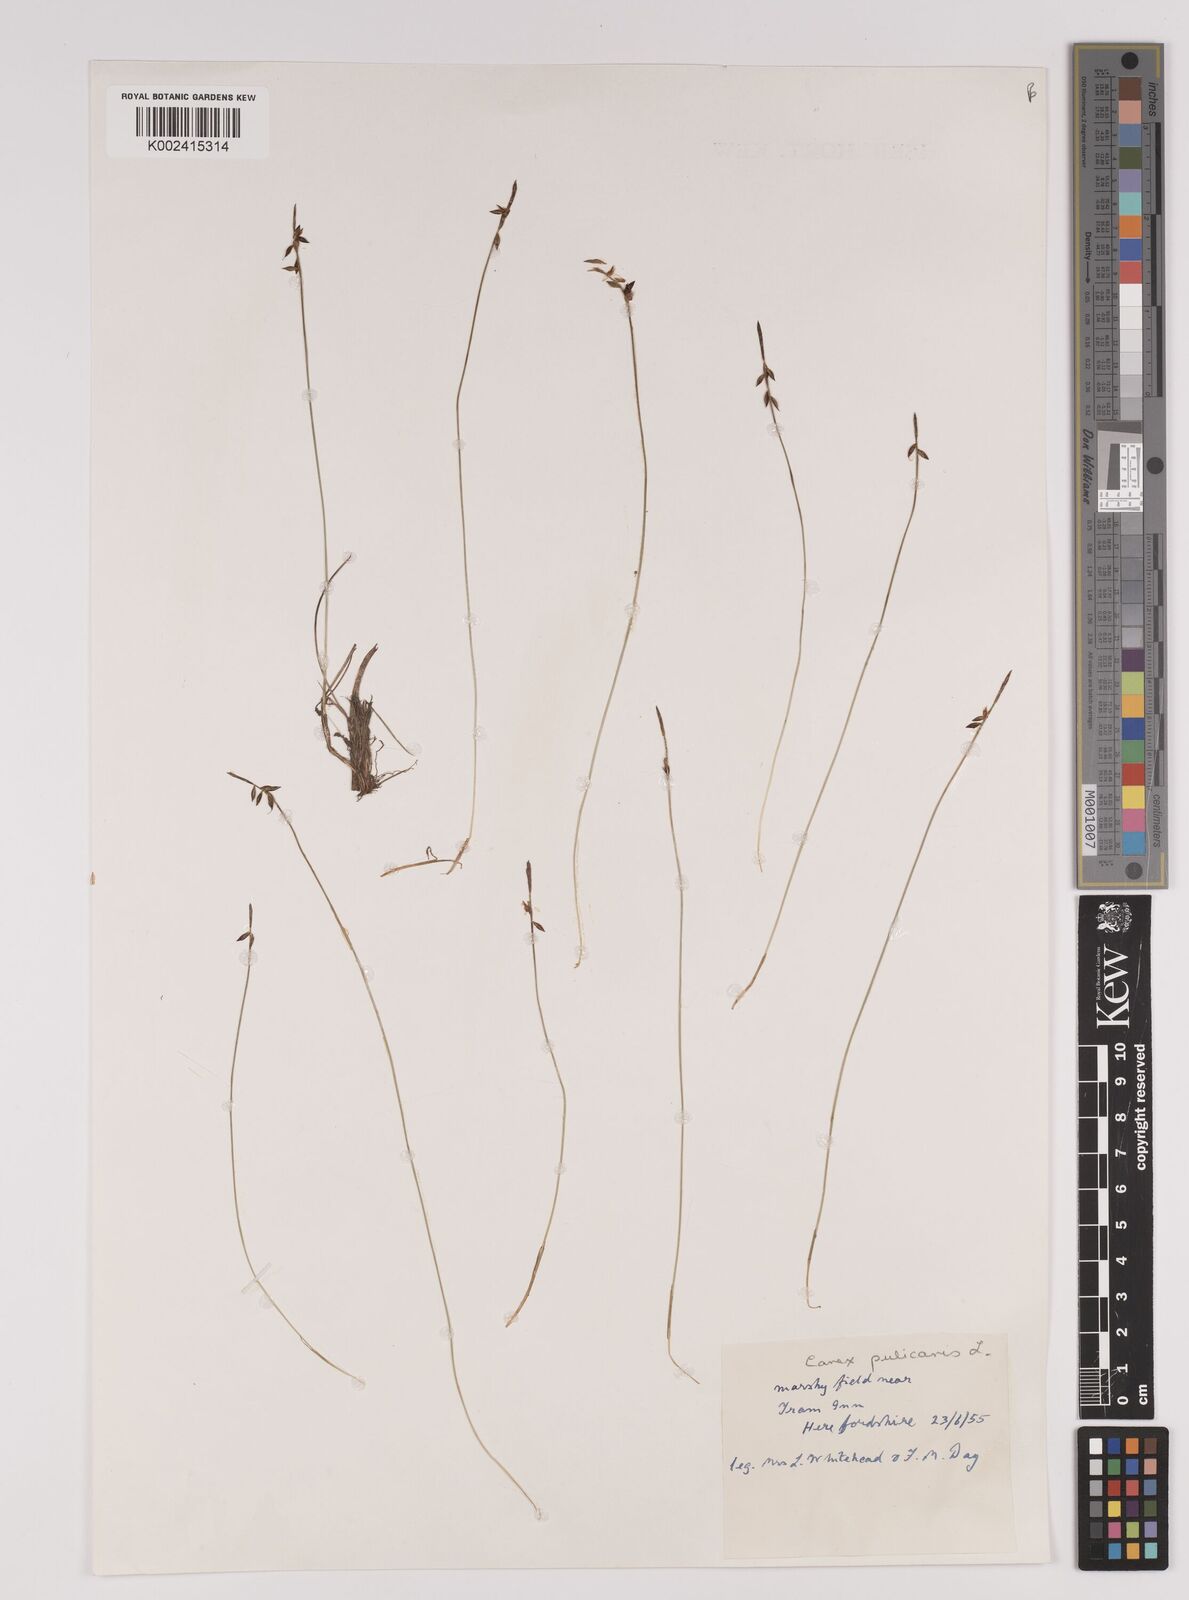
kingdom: Plantae
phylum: Tracheophyta
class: Liliopsida
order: Poales
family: Cyperaceae
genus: Carex
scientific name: Carex pulicaris
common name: Flea sedge
